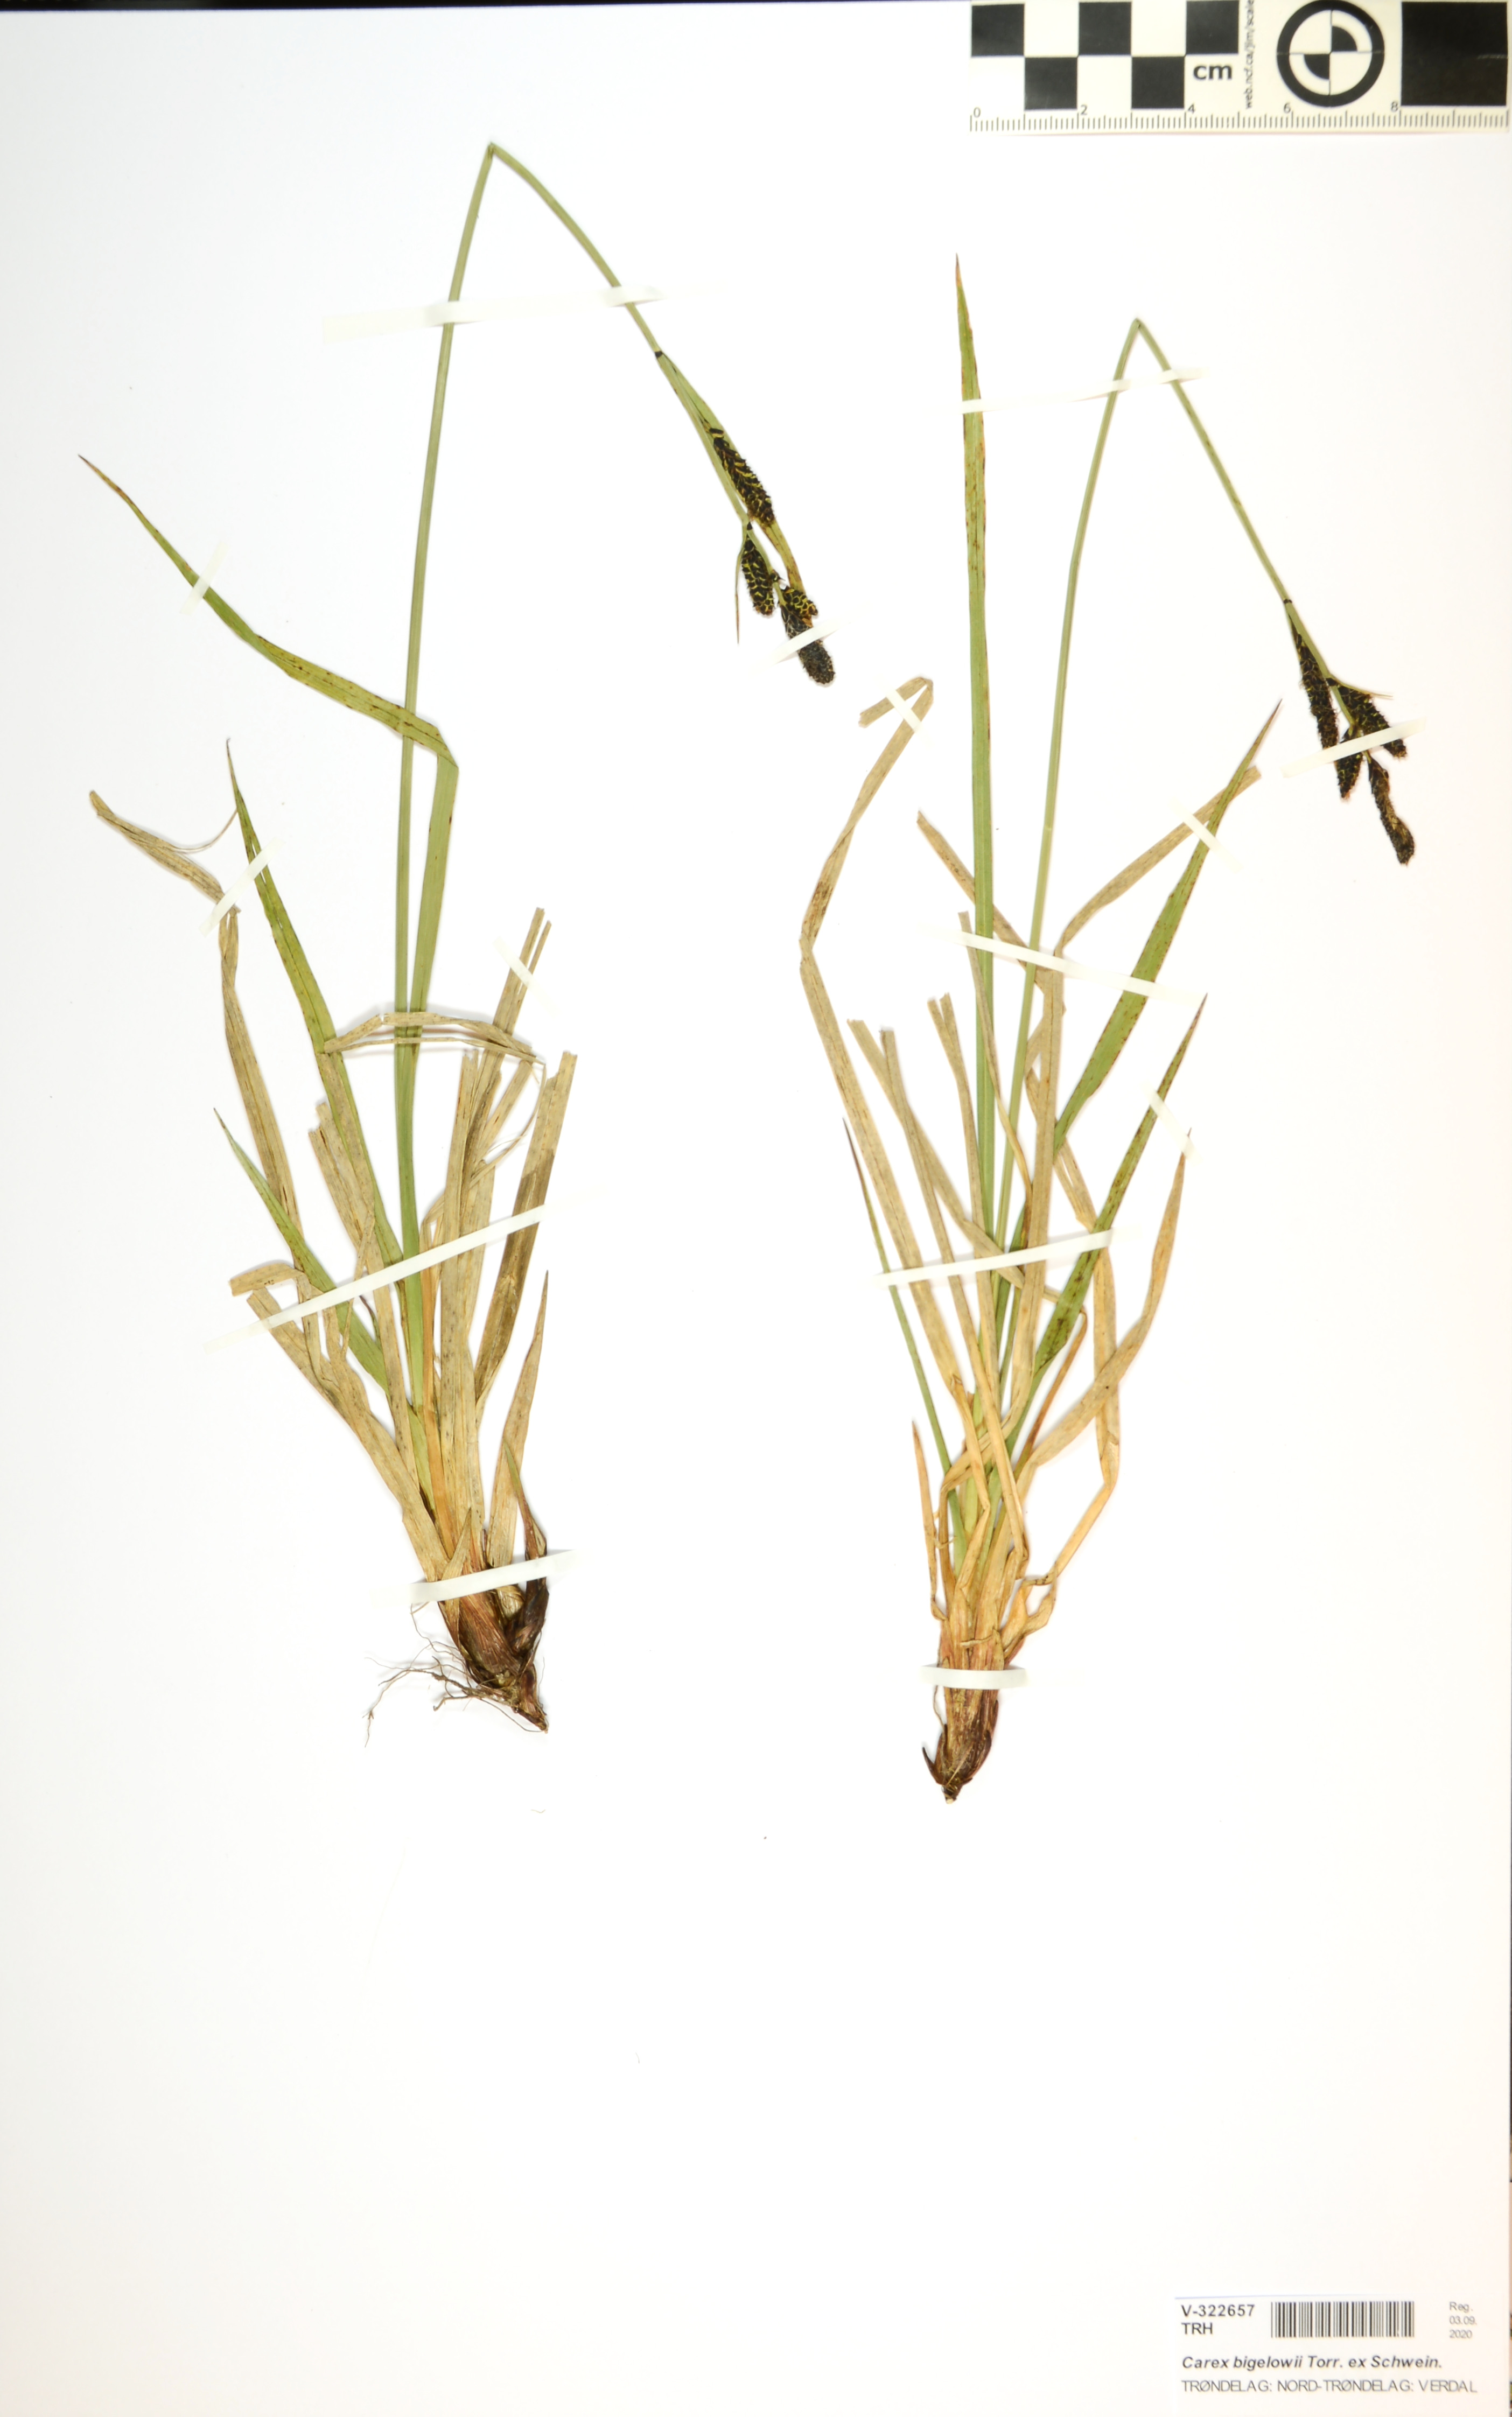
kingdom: Plantae
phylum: Tracheophyta
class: Liliopsida
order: Poales
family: Cyperaceae
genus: Carex
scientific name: Carex bigelowii
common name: Stiff sedge
